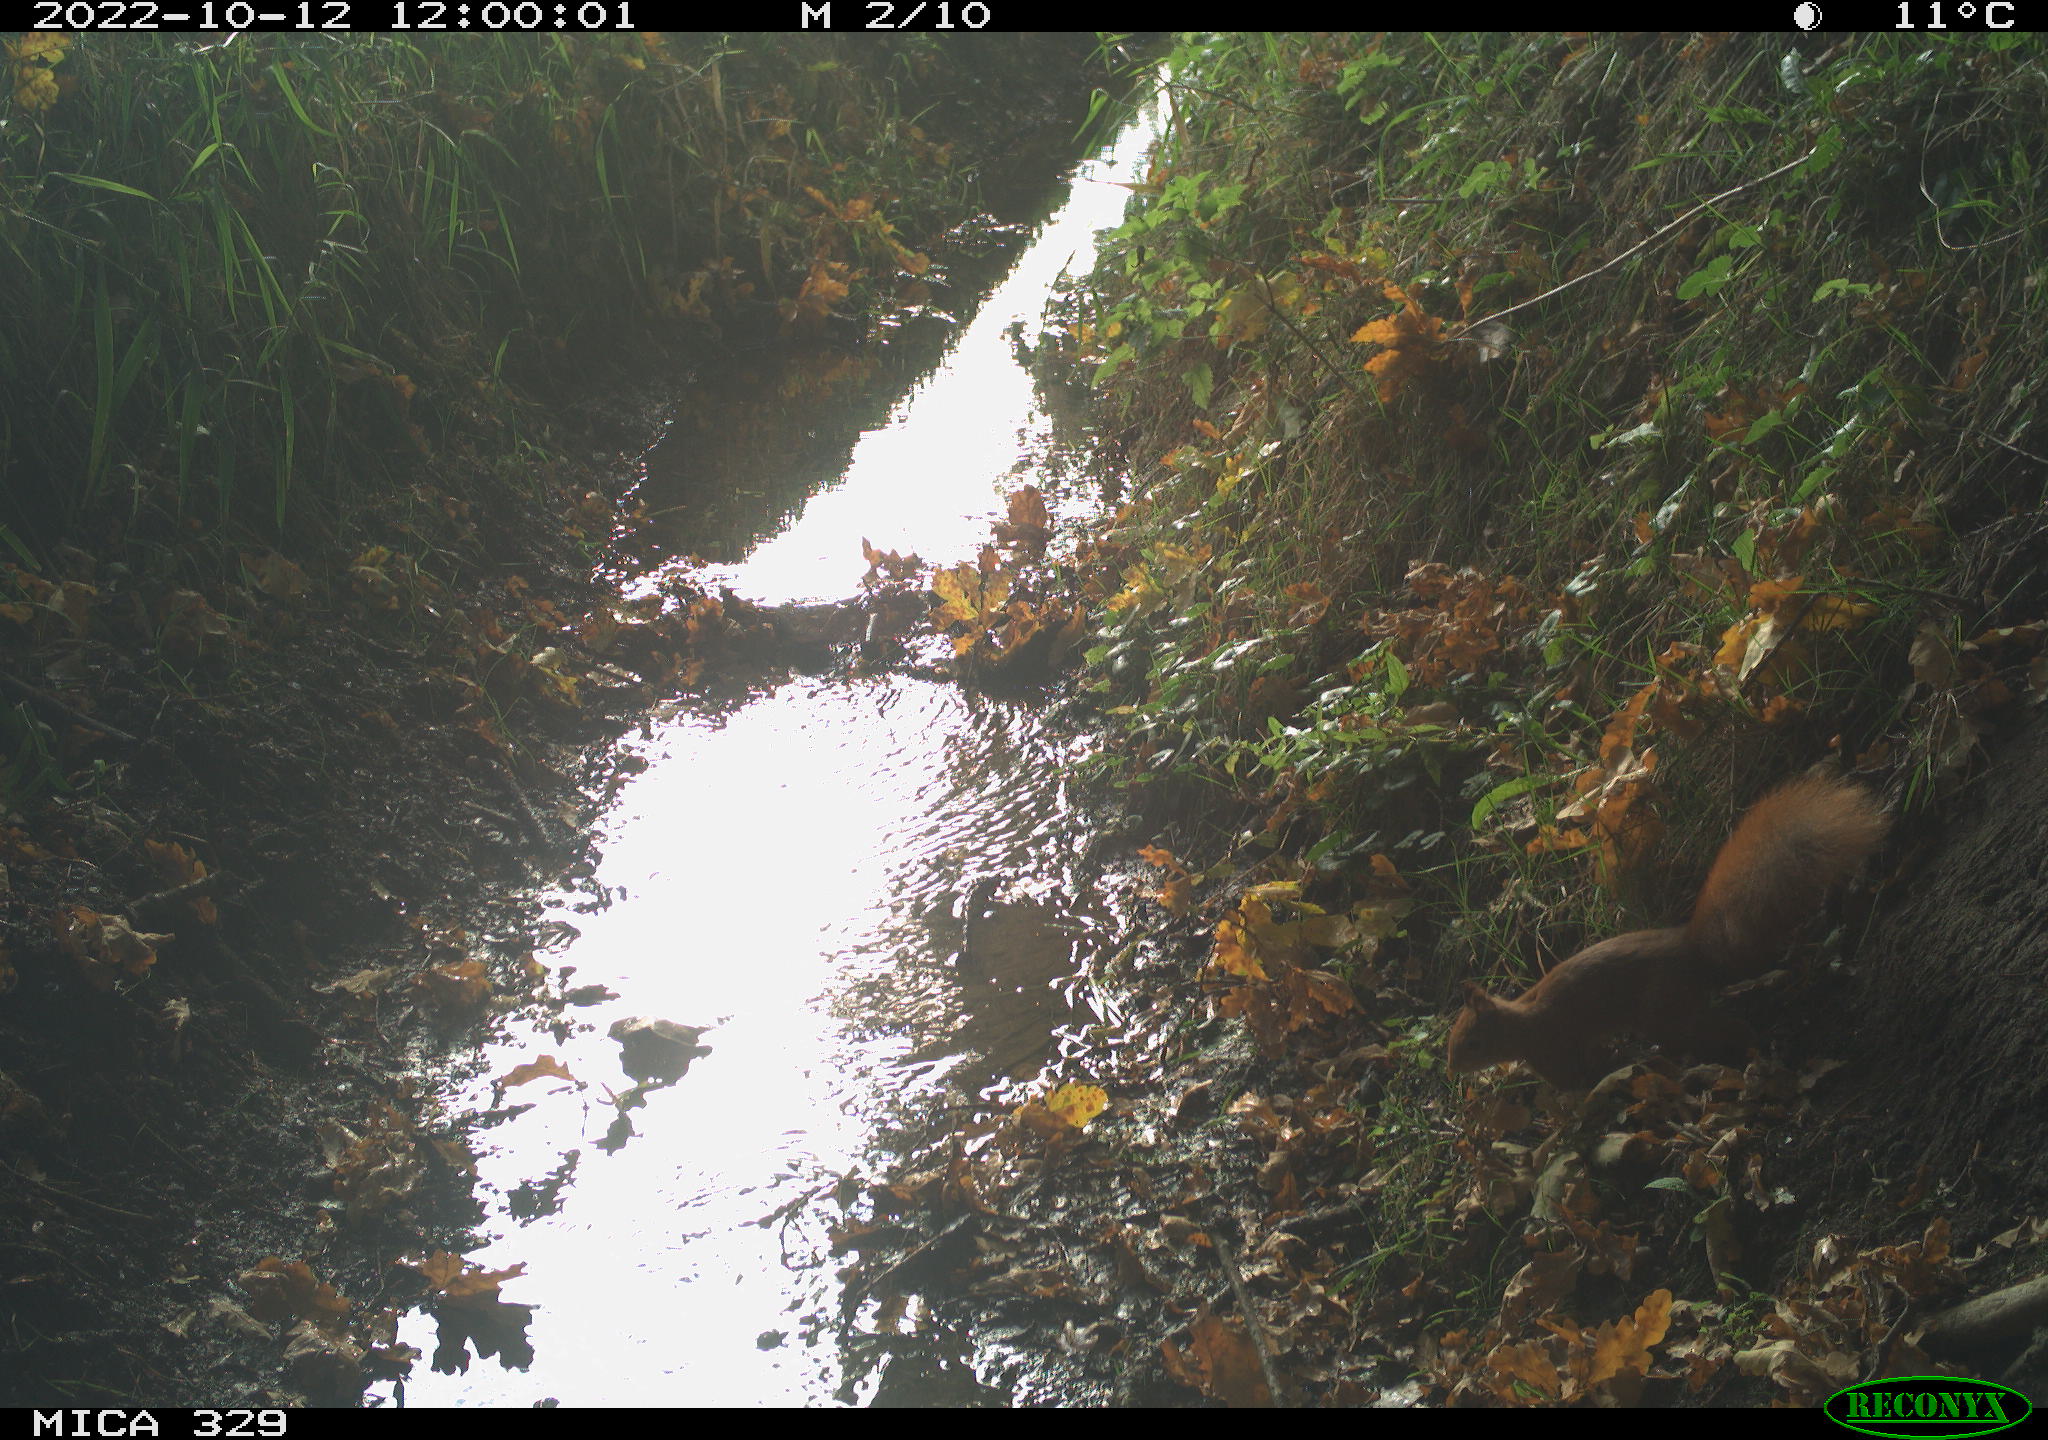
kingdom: Animalia
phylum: Chordata
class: Mammalia
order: Rodentia
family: Sciuridae
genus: Sciurus
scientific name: Sciurus vulgaris
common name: Eurasian red squirrel
